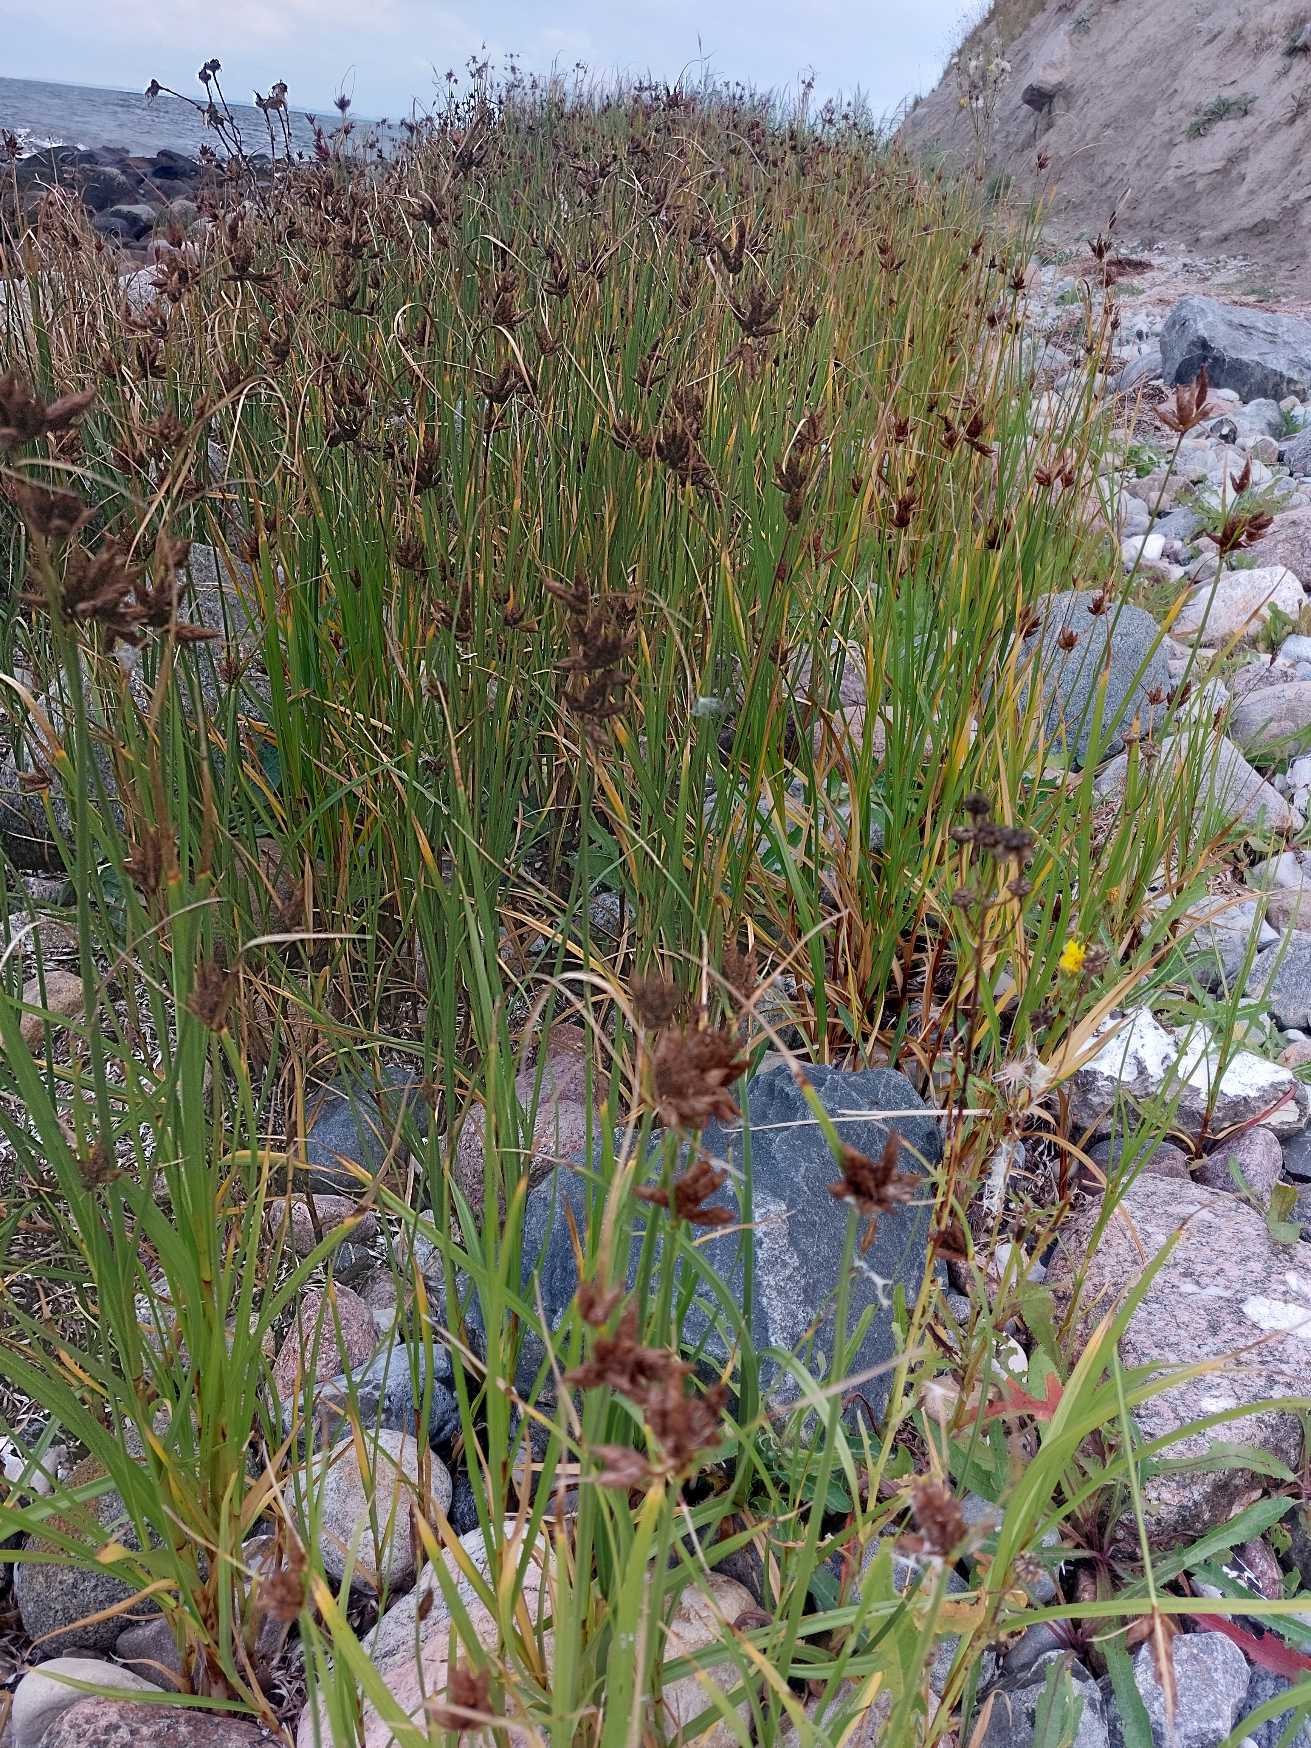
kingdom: Plantae
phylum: Tracheophyta
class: Liliopsida
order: Poales
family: Cyperaceae
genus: Bolboschoenus
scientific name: Bolboschoenus maritimus
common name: Strand-kogleaks
